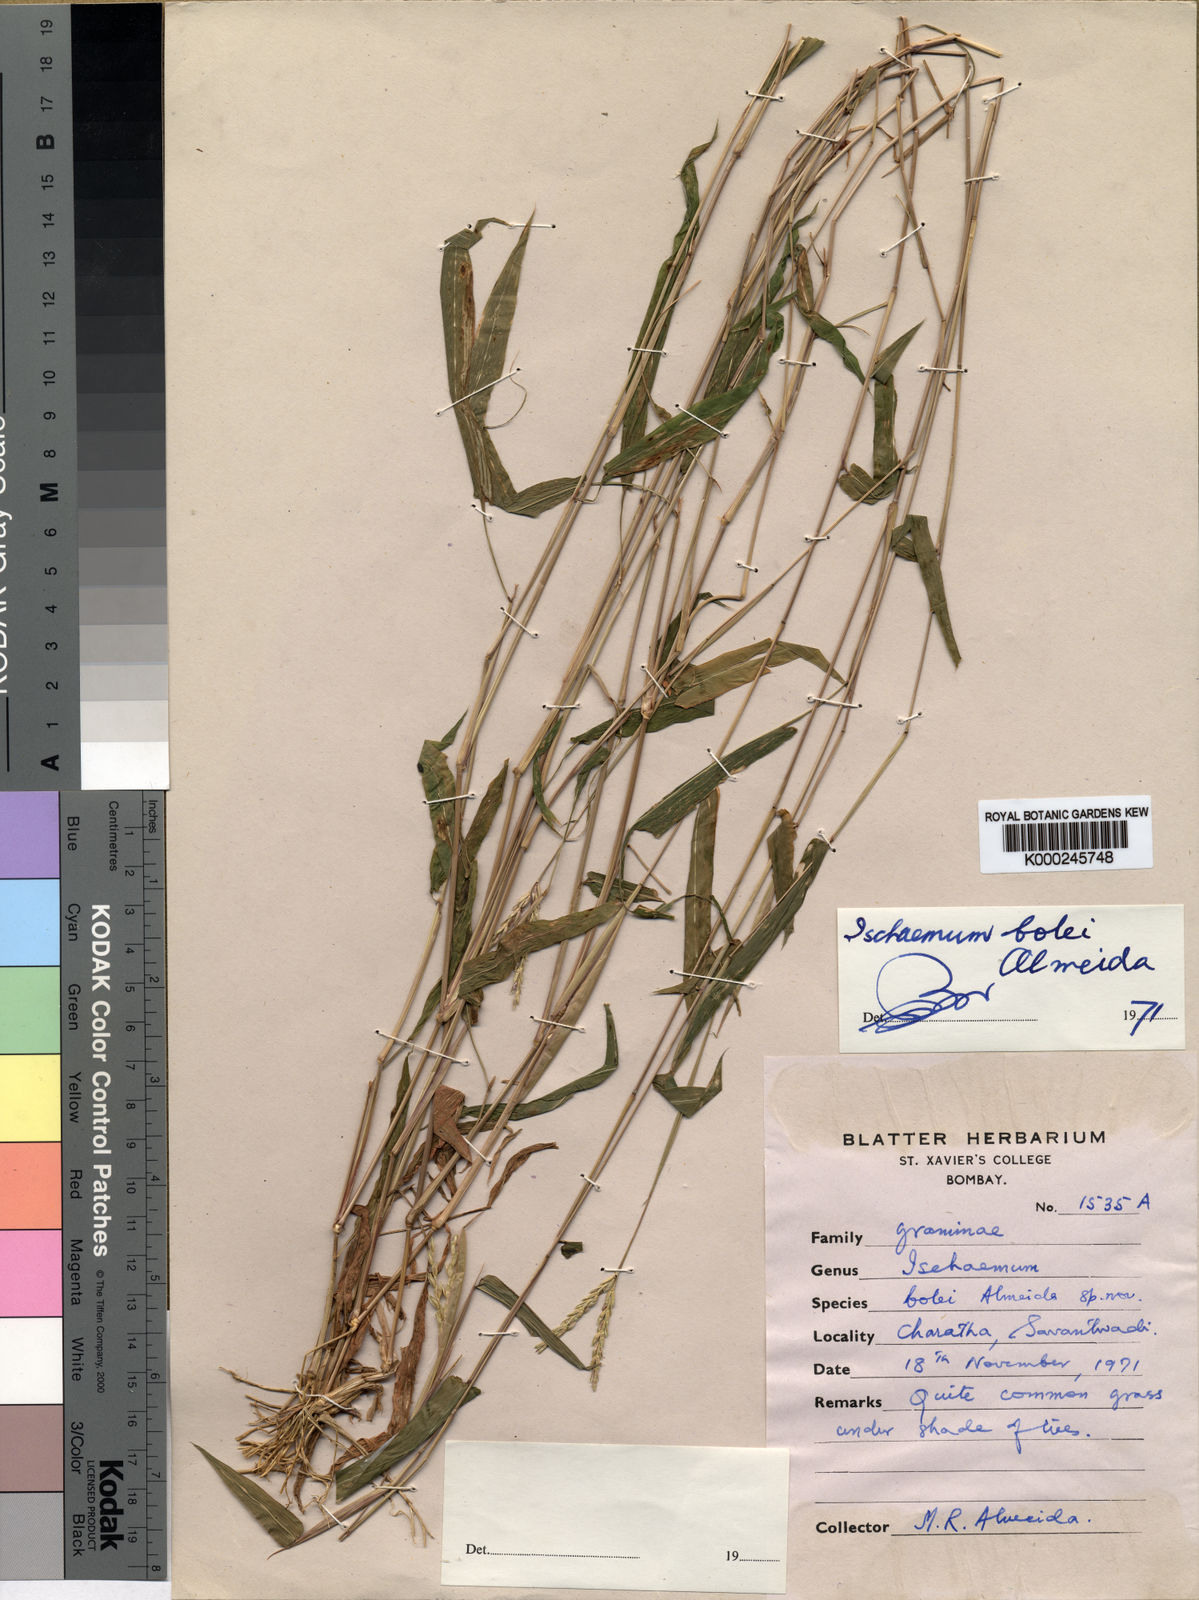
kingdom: Plantae
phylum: Tracheophyta
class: Liliopsida
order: Poales
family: Poaceae
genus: Ischaemum
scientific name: Ischaemum bolei
